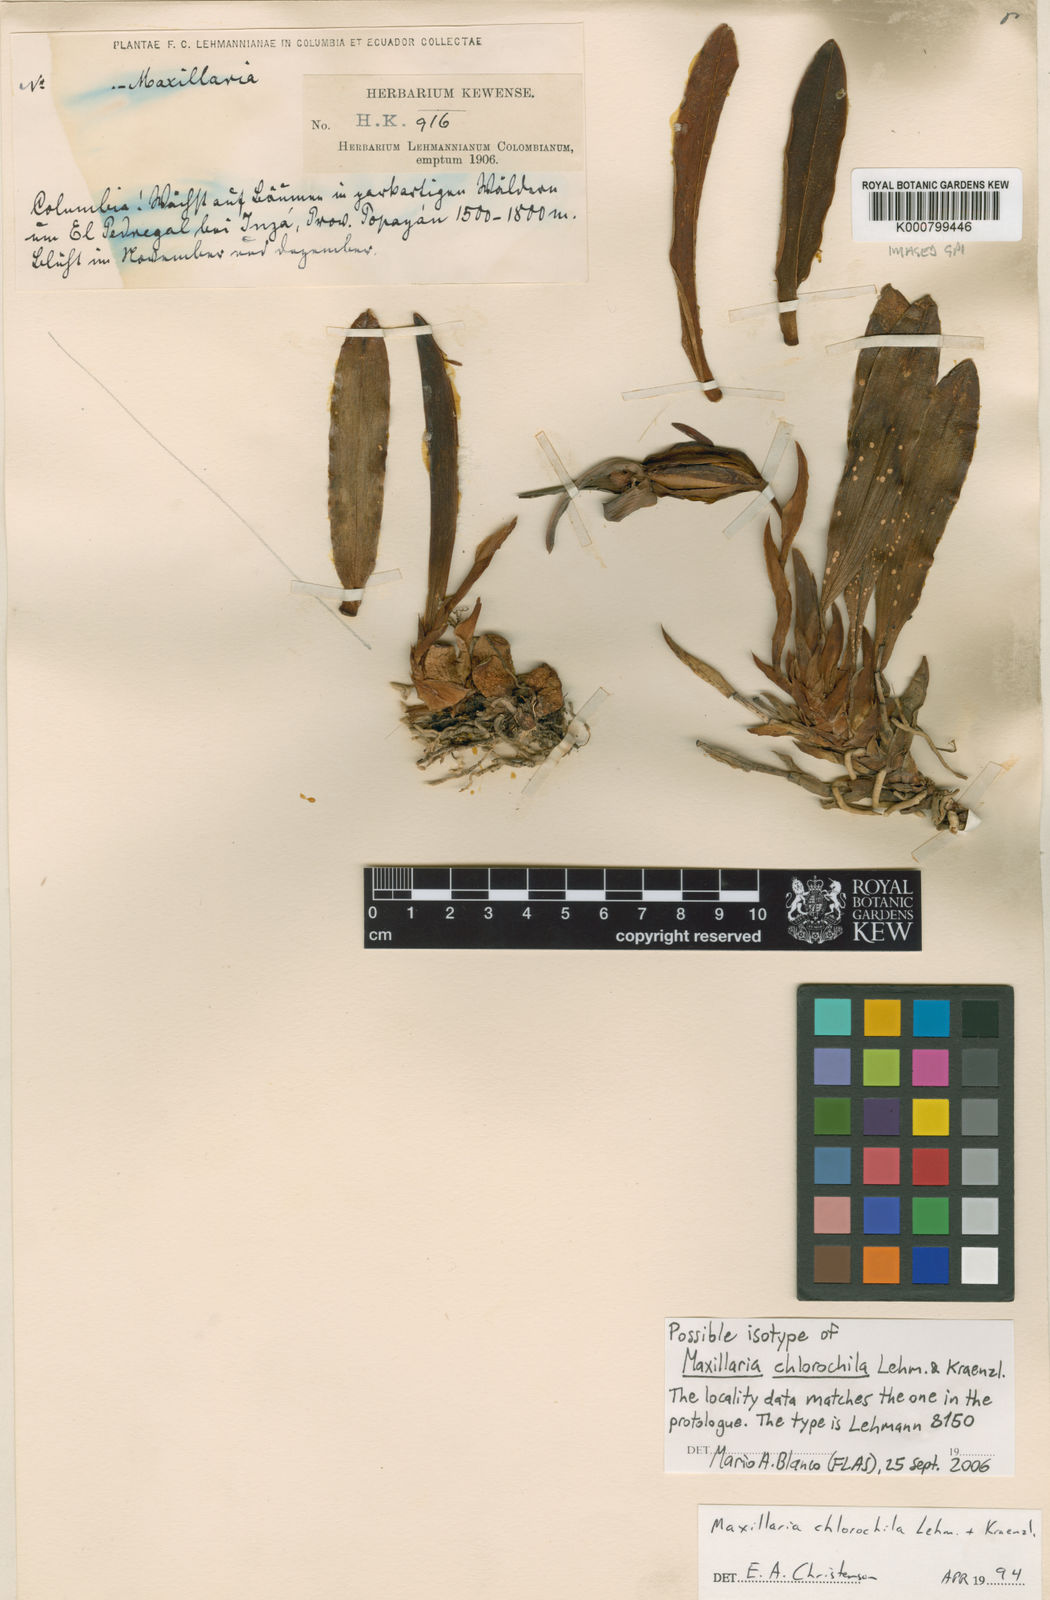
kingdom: Plantae
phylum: Tracheophyta
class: Liliopsida
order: Asparagales
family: Orchidaceae
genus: Maxillaria
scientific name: Maxillaria alpestris
